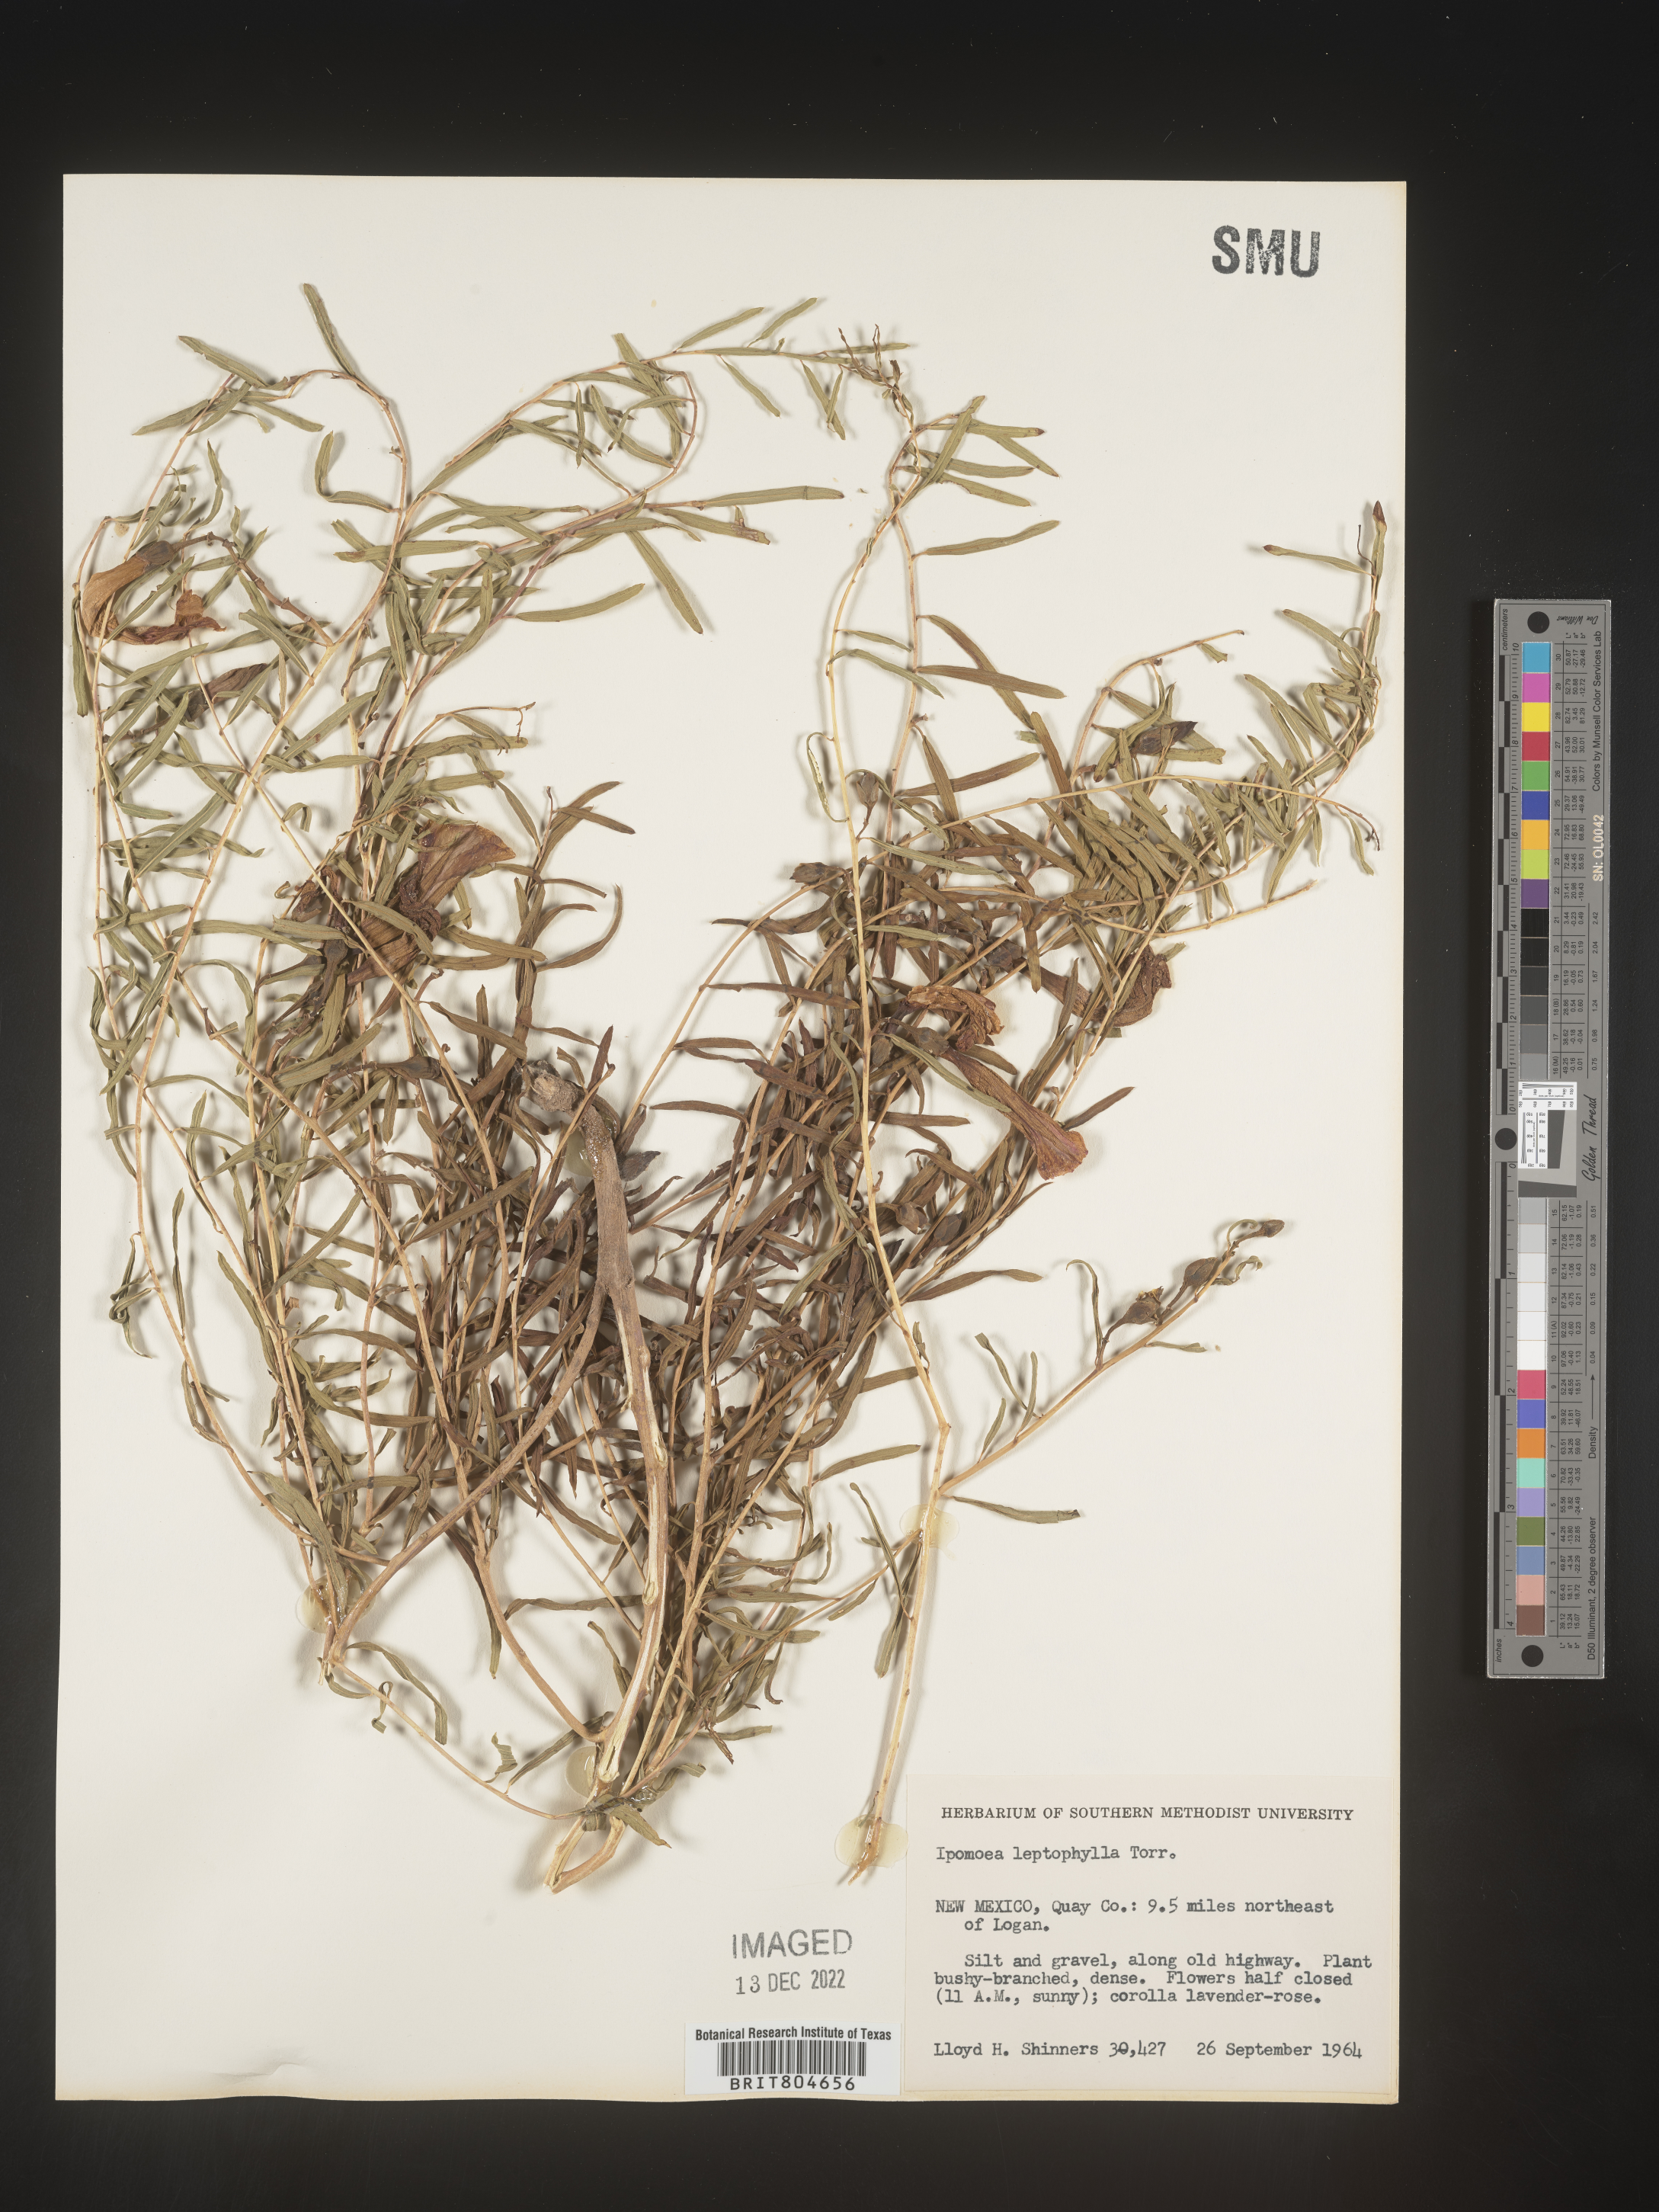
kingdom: Plantae
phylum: Tracheophyta
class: Magnoliopsida
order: Solanales
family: Convolvulaceae
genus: Ipomoea
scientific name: Ipomoea leptophylla
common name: Bush moonflower
